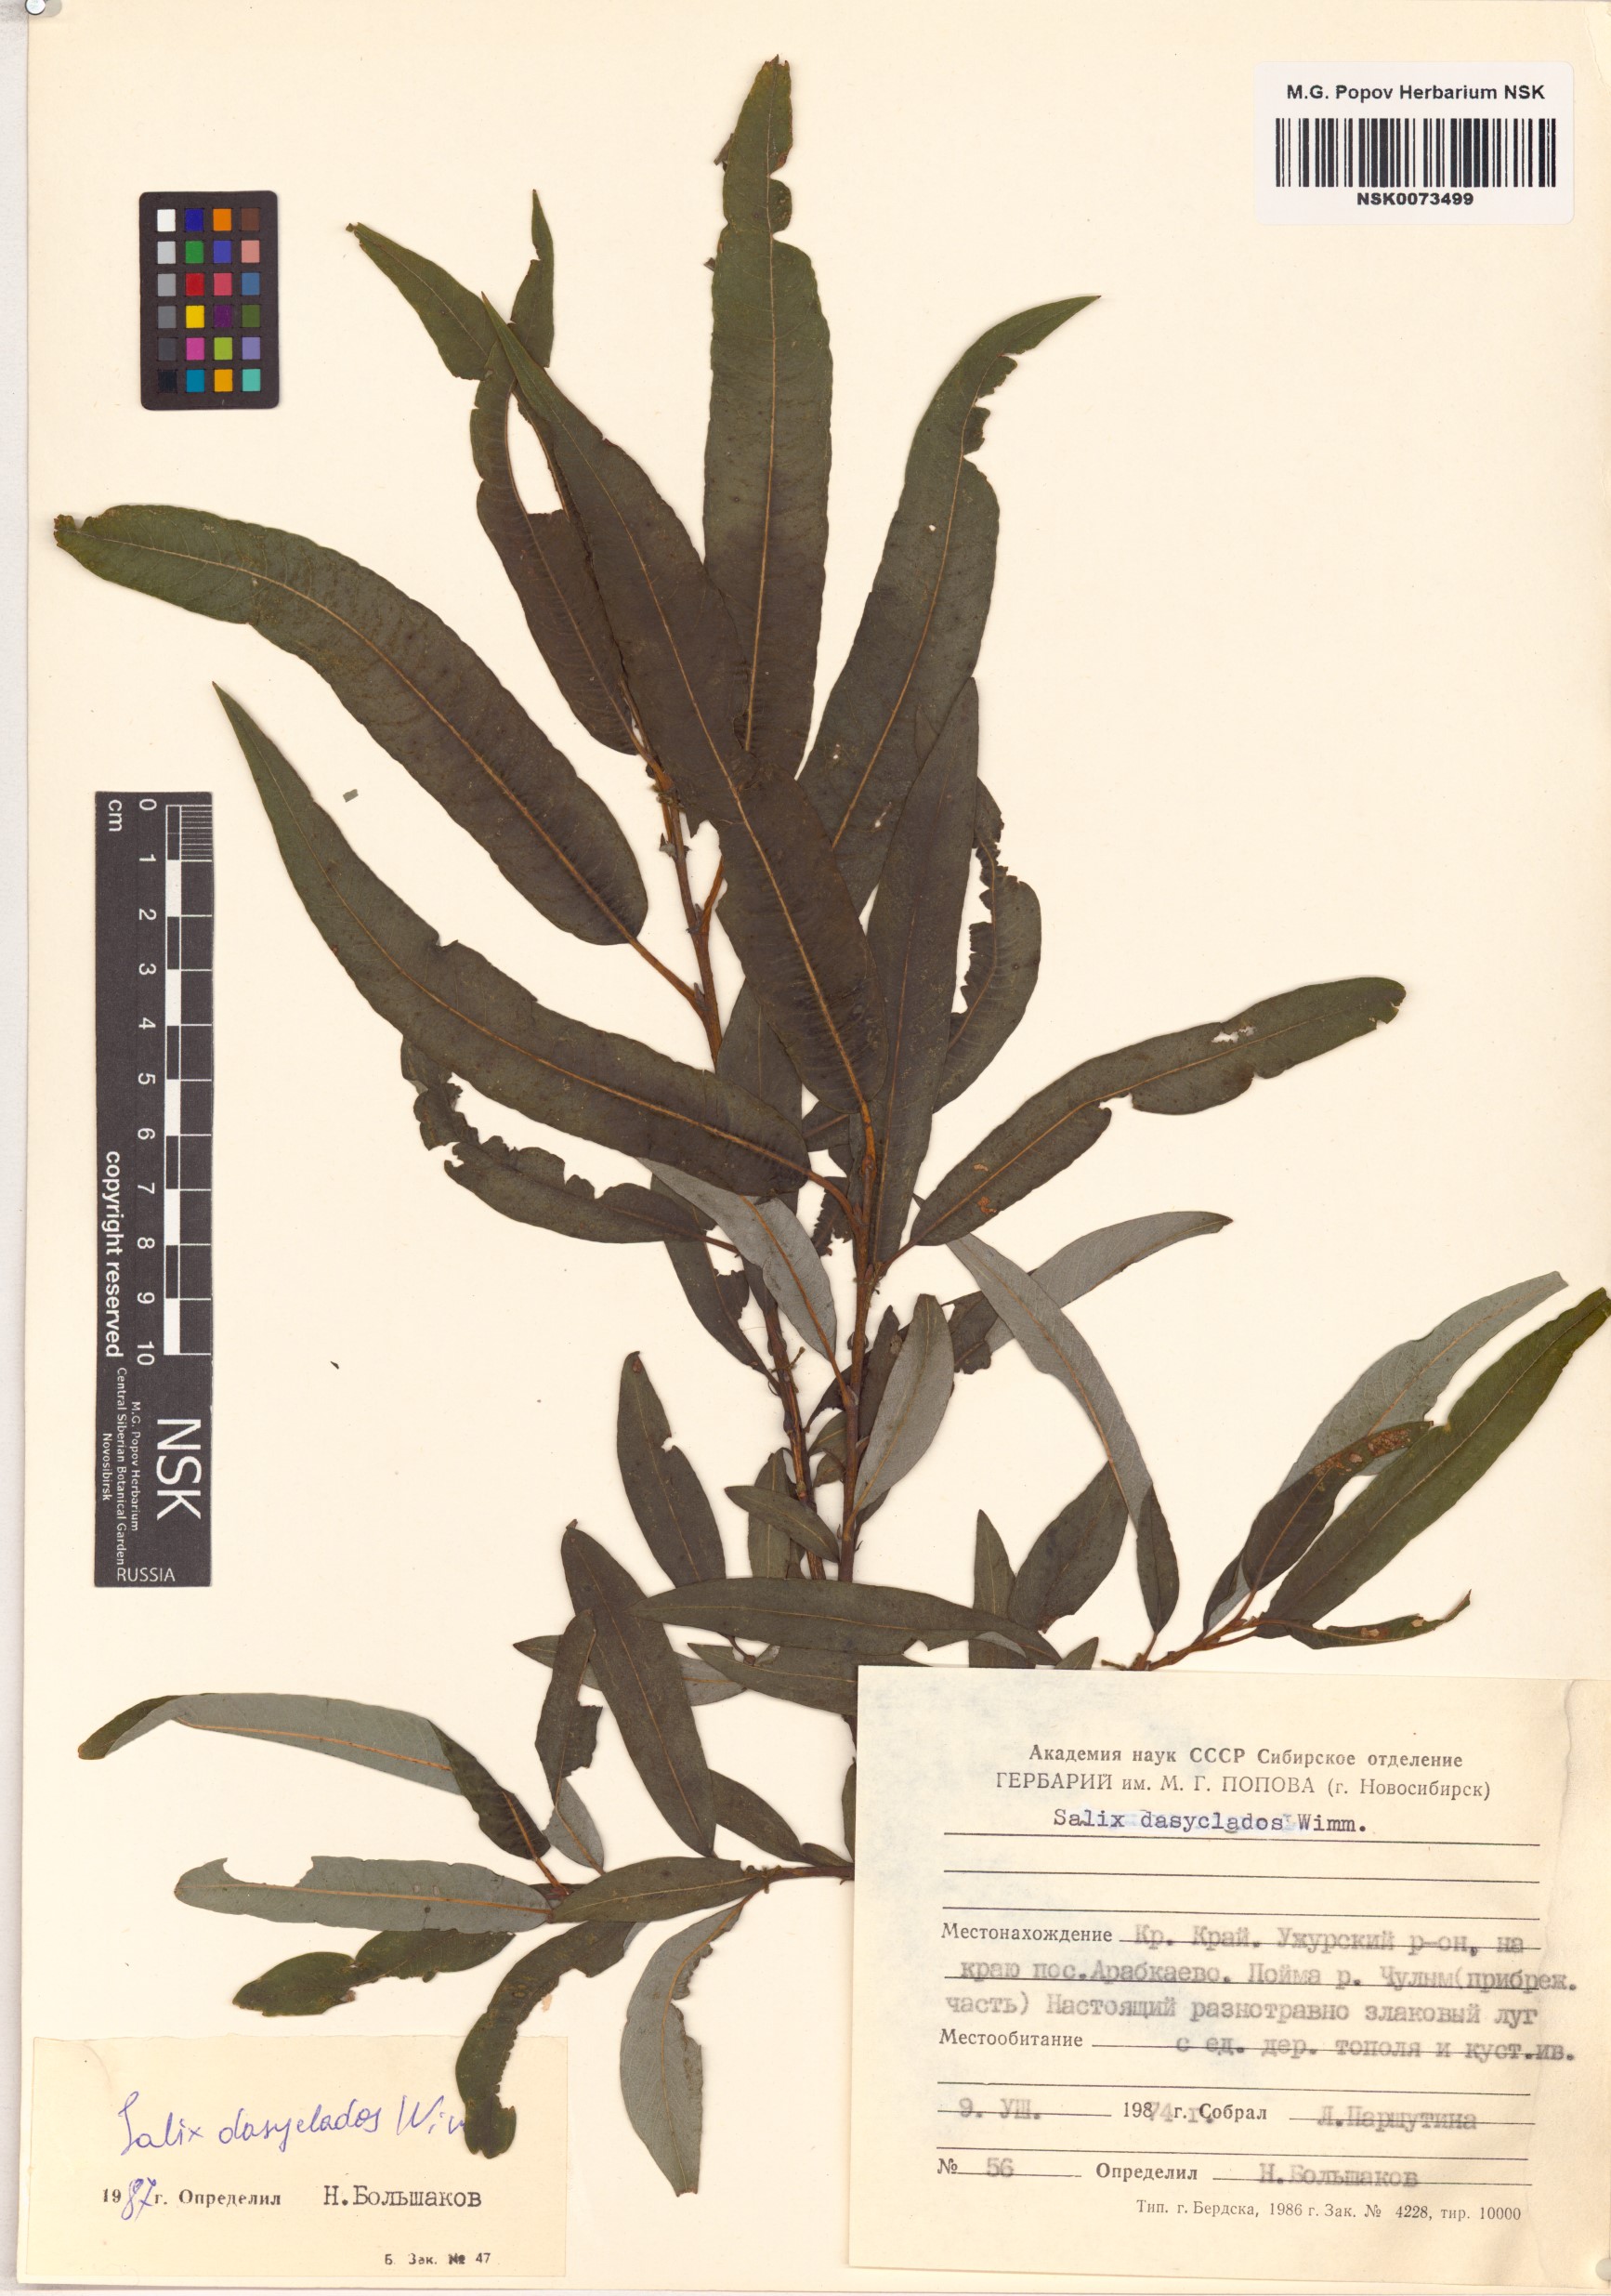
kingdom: Plantae
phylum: Tracheophyta
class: Magnoliopsida
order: Malpighiales
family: Salicaceae
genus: Salix
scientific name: Salix gmelinii
